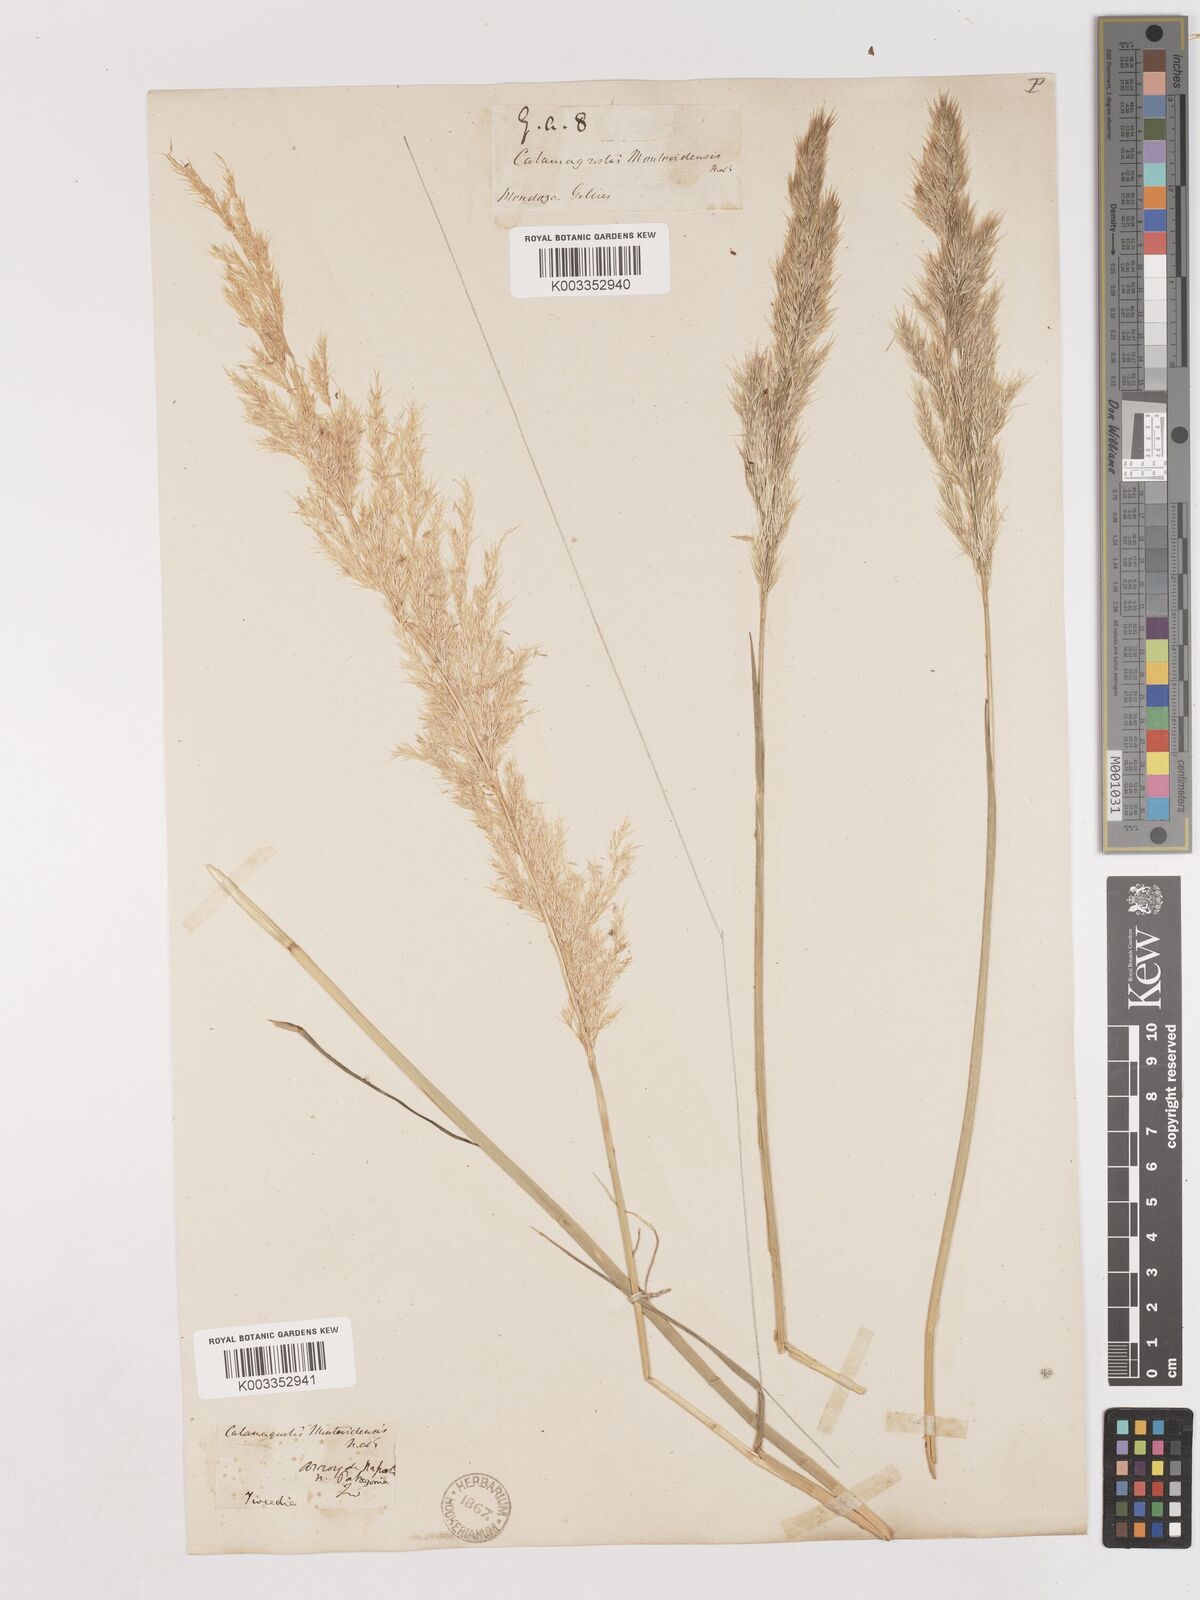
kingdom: Plantae
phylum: Tracheophyta
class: Liliopsida
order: Poales
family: Poaceae
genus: Cinnagrostis
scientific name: Cinnagrostis viridiflavescens
